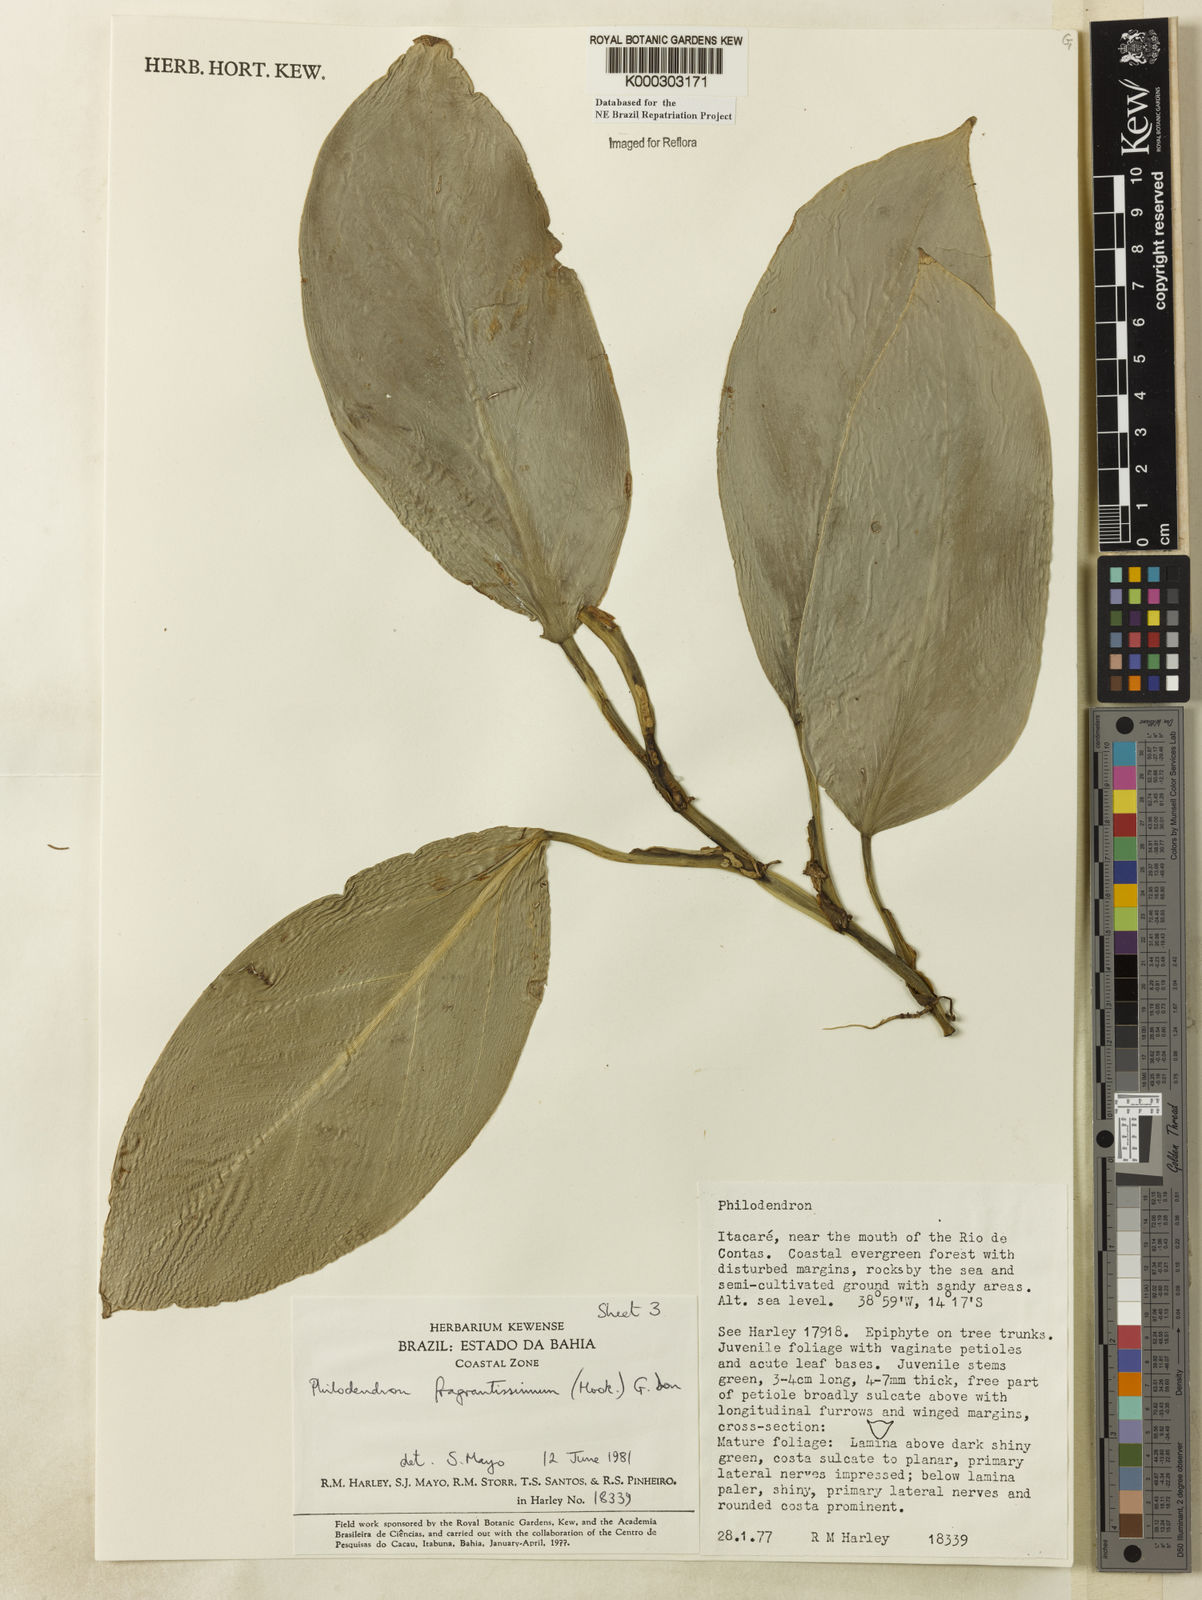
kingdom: Plantae
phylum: Tracheophyta
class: Liliopsida
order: Alismatales
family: Araceae
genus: Philodendron
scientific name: Philodendron fragrantissimum
